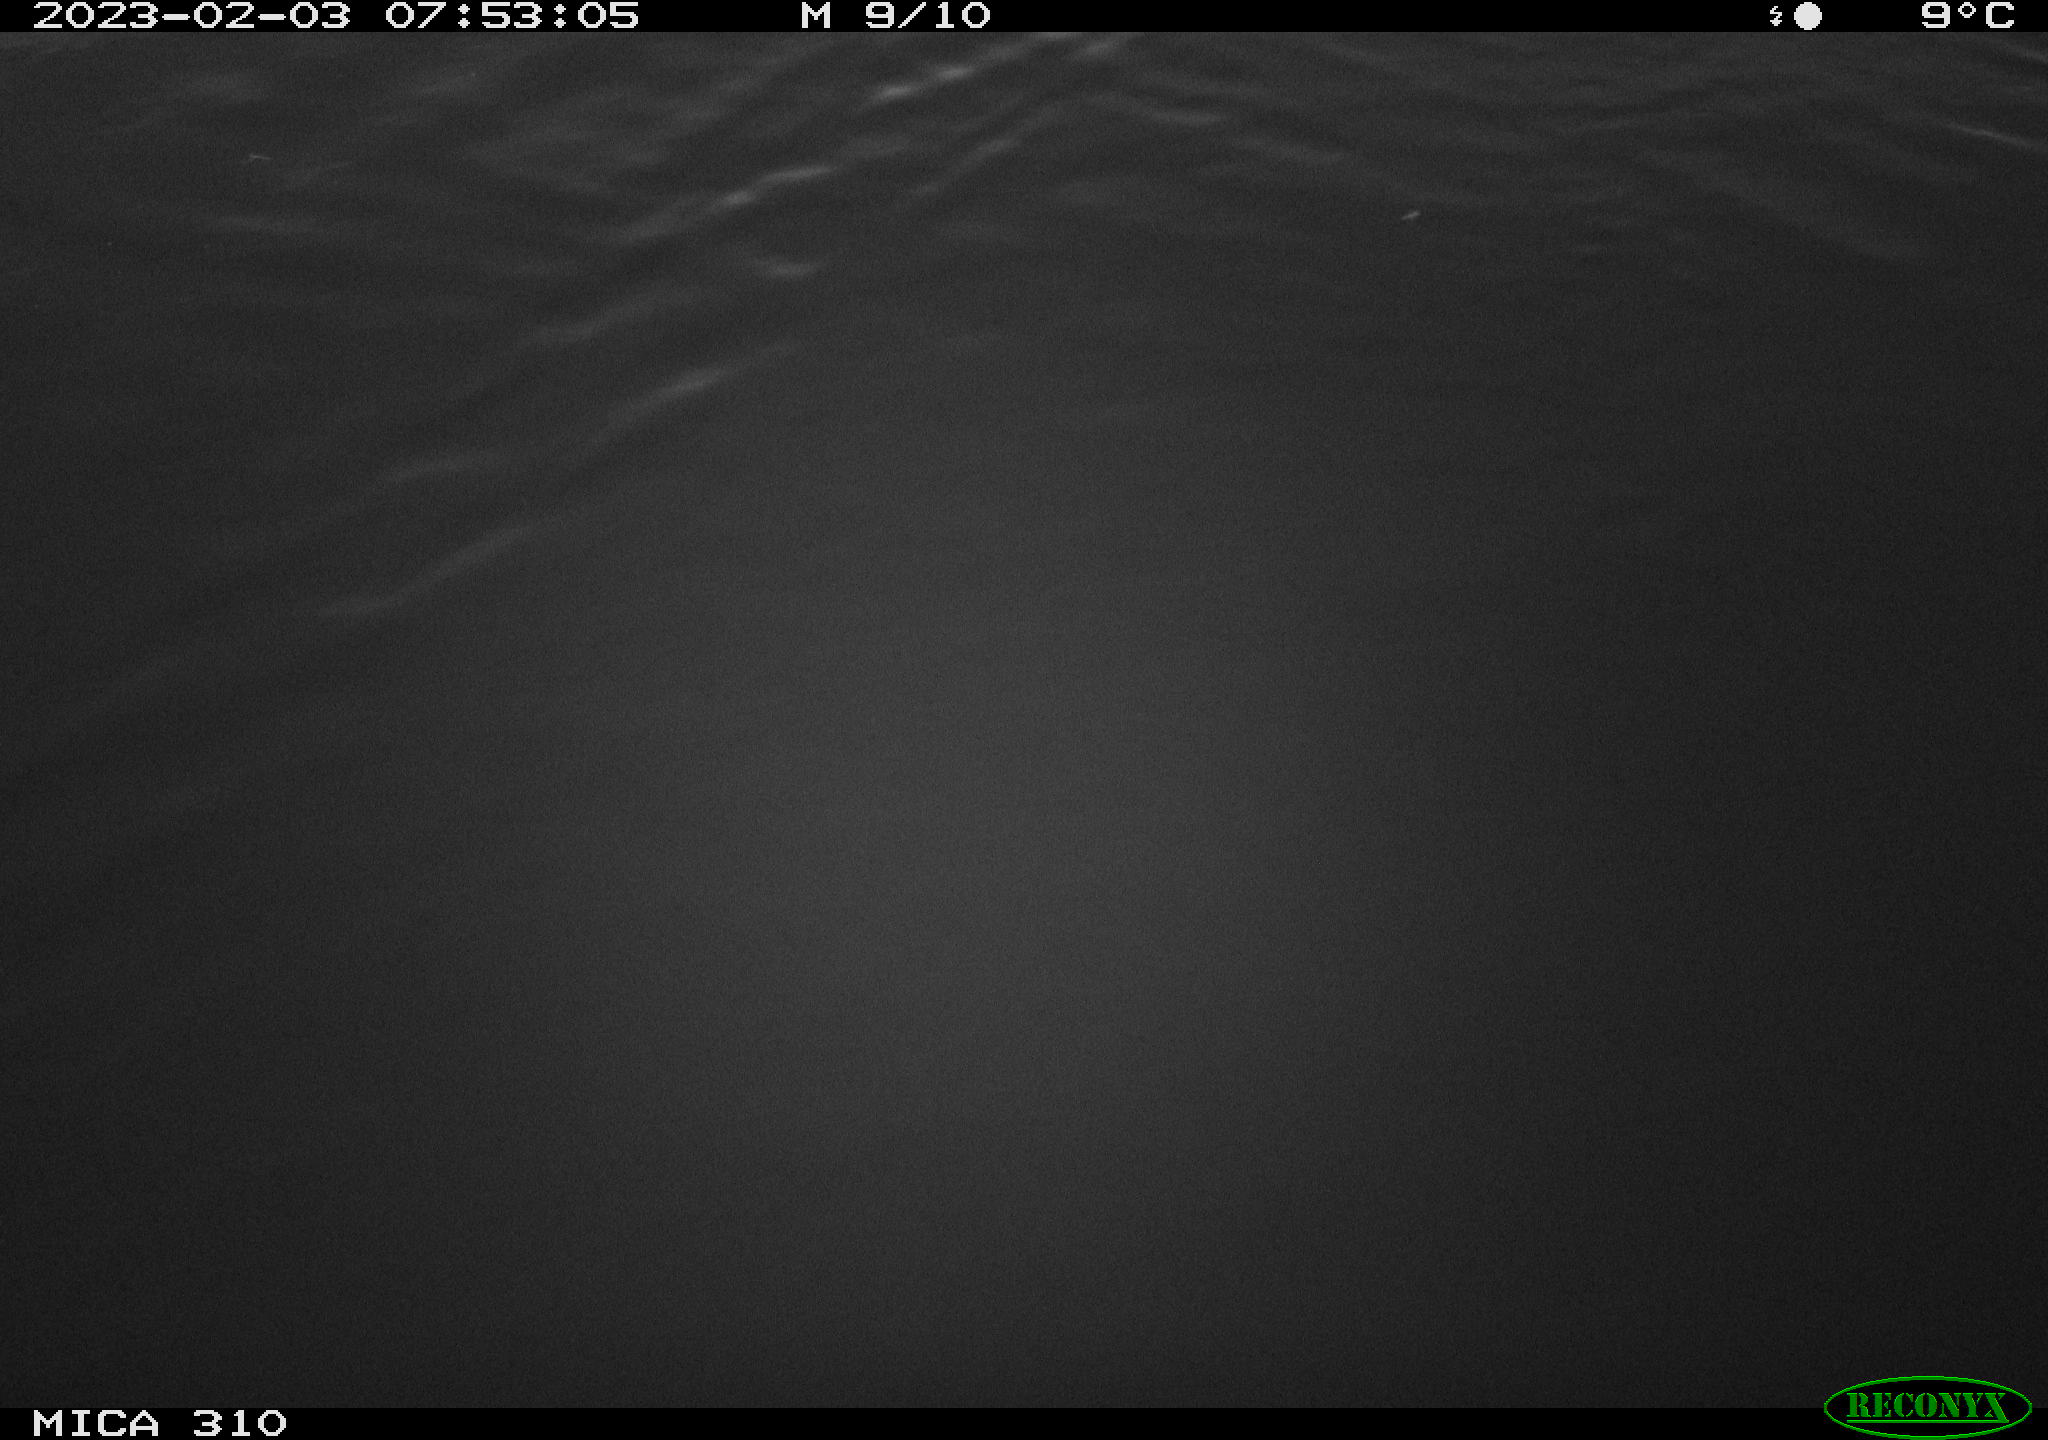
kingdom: Animalia
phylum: Chordata
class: Mammalia
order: Rodentia
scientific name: Rodentia
